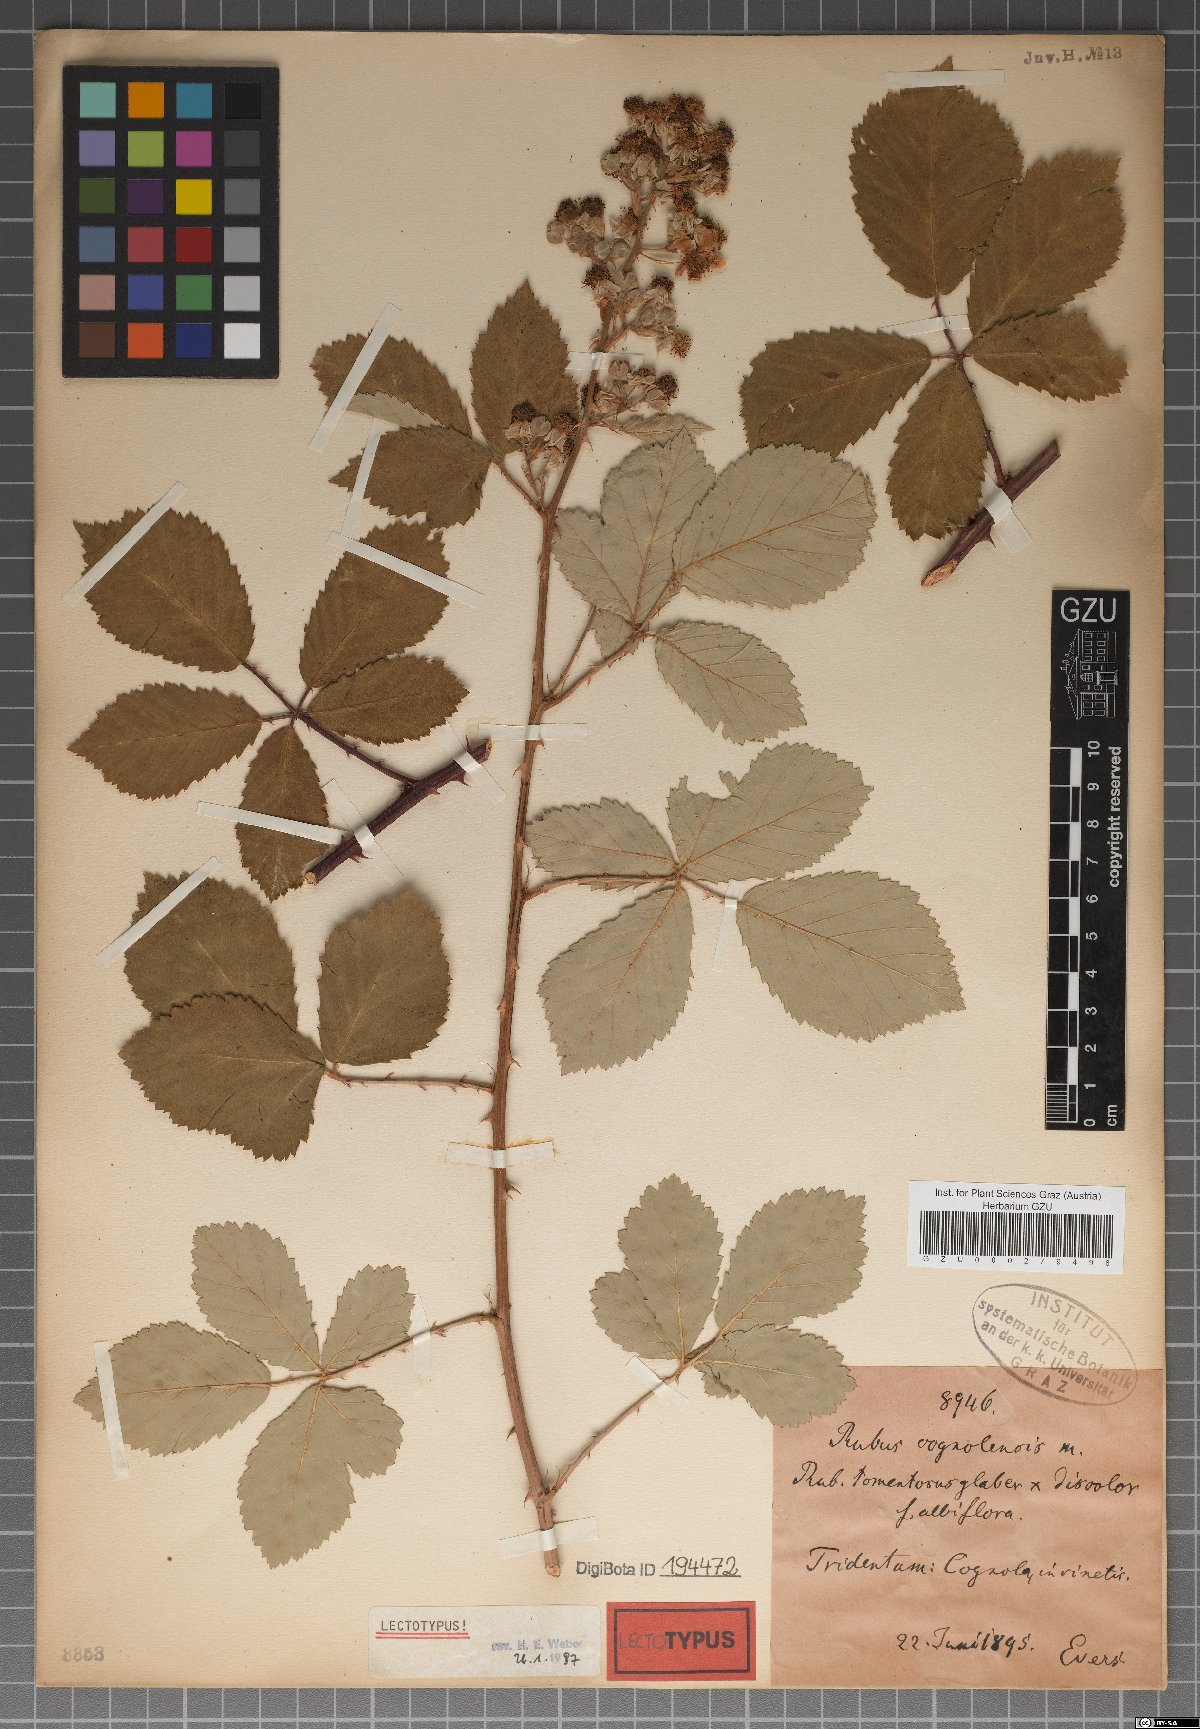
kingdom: Plantae
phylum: Tracheophyta
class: Magnoliopsida
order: Rosales
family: Rosaceae
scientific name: Rosaceae
